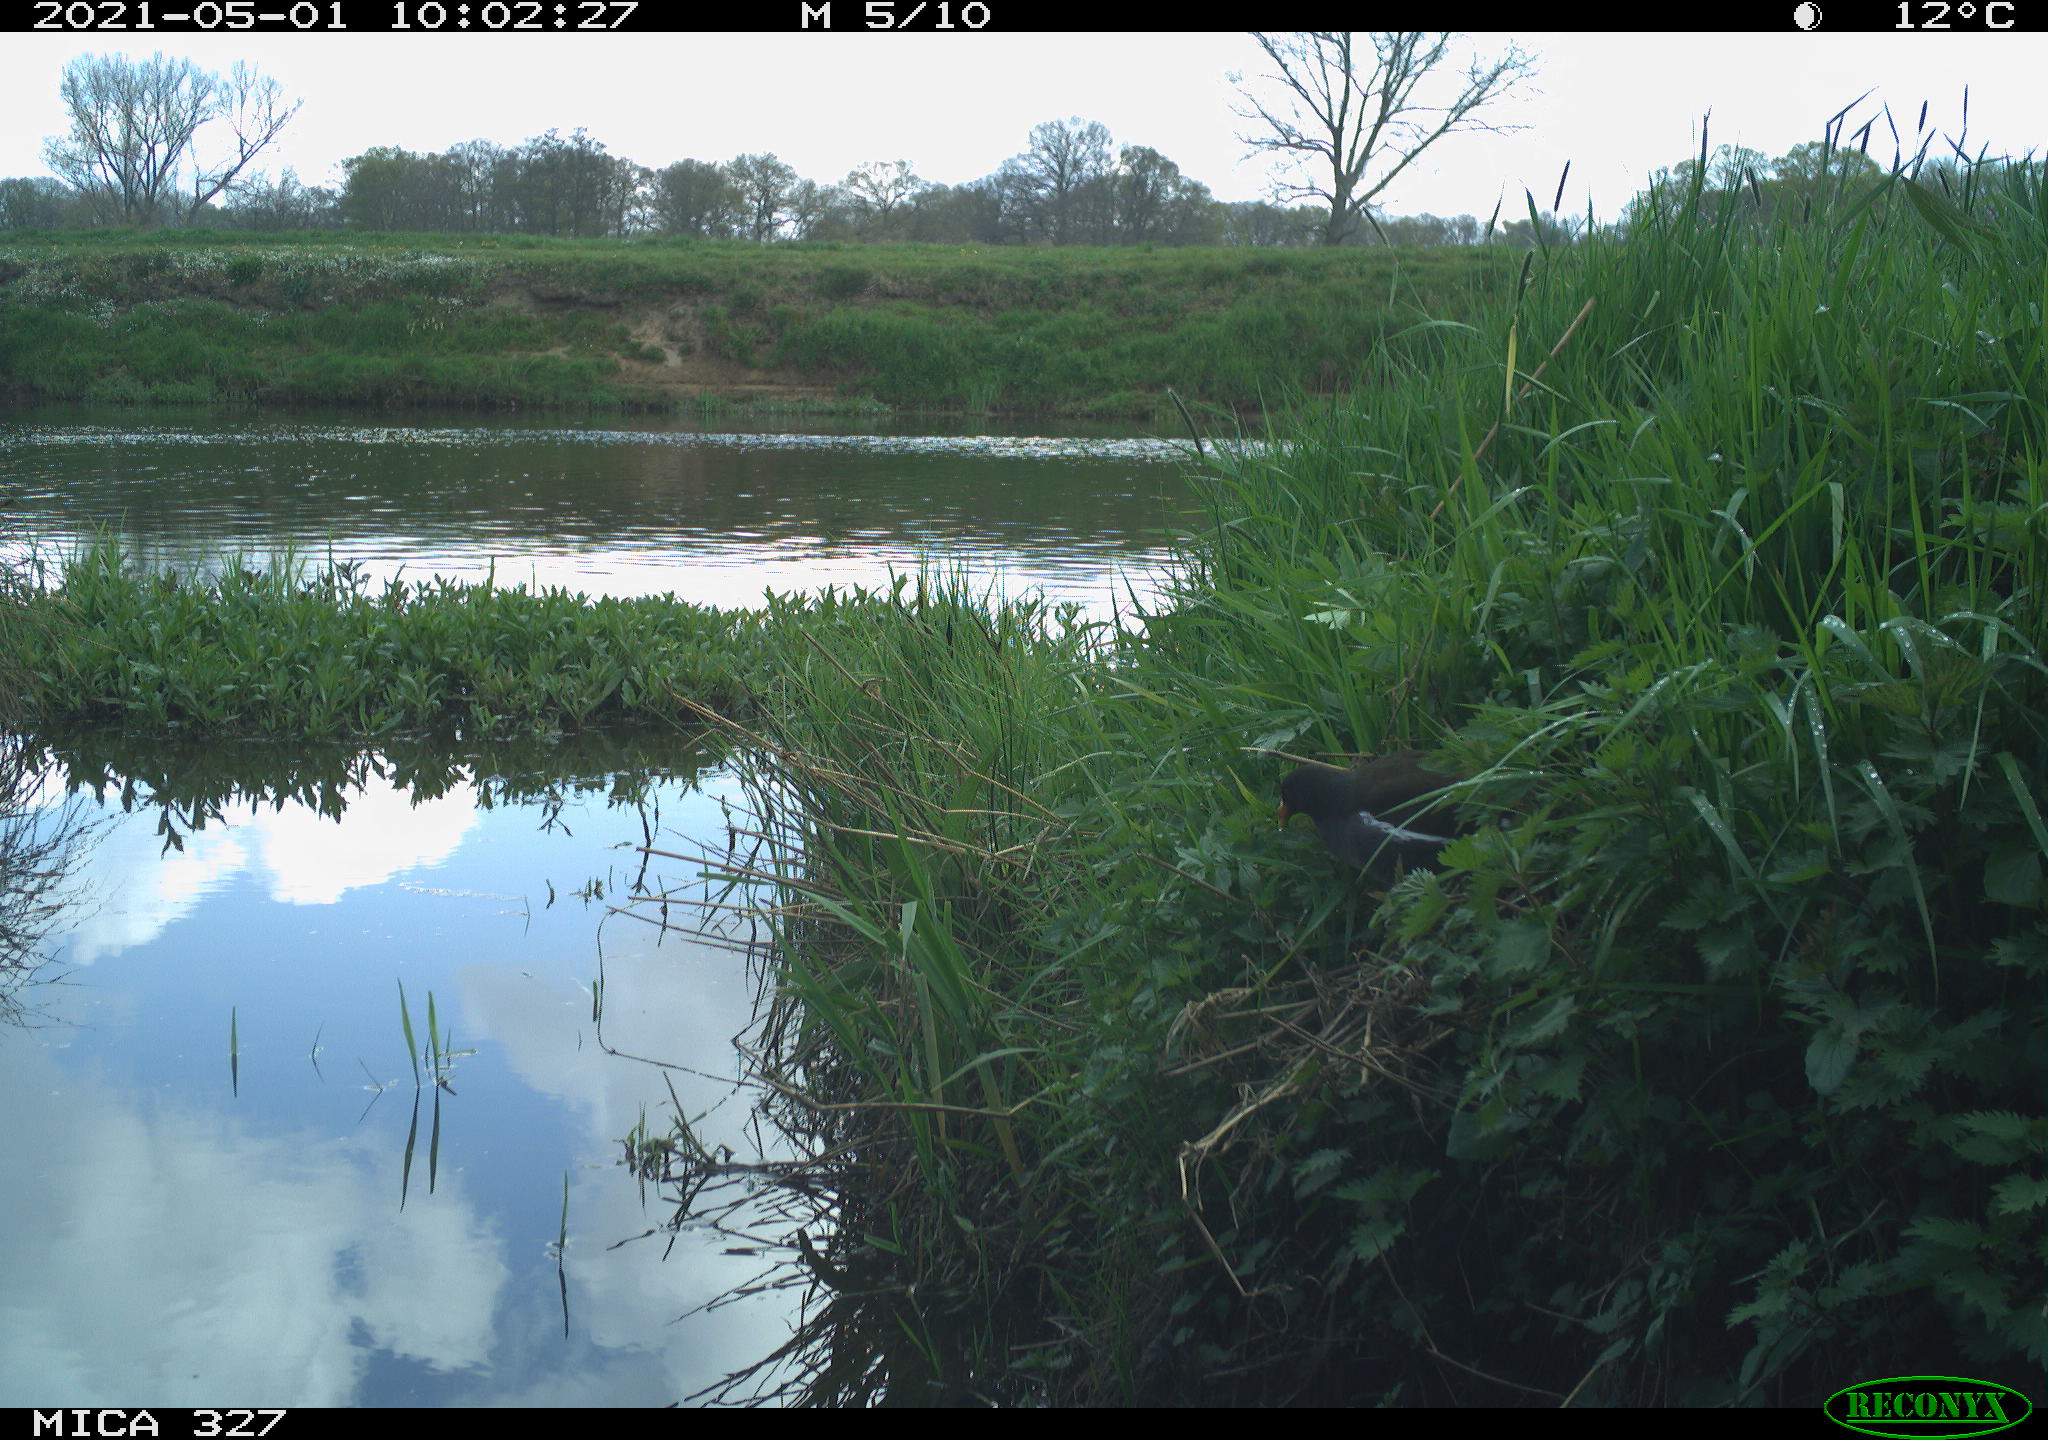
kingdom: Animalia
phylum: Chordata
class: Aves
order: Gruiformes
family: Rallidae
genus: Gallinula
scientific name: Gallinula chloropus
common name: Common moorhen
